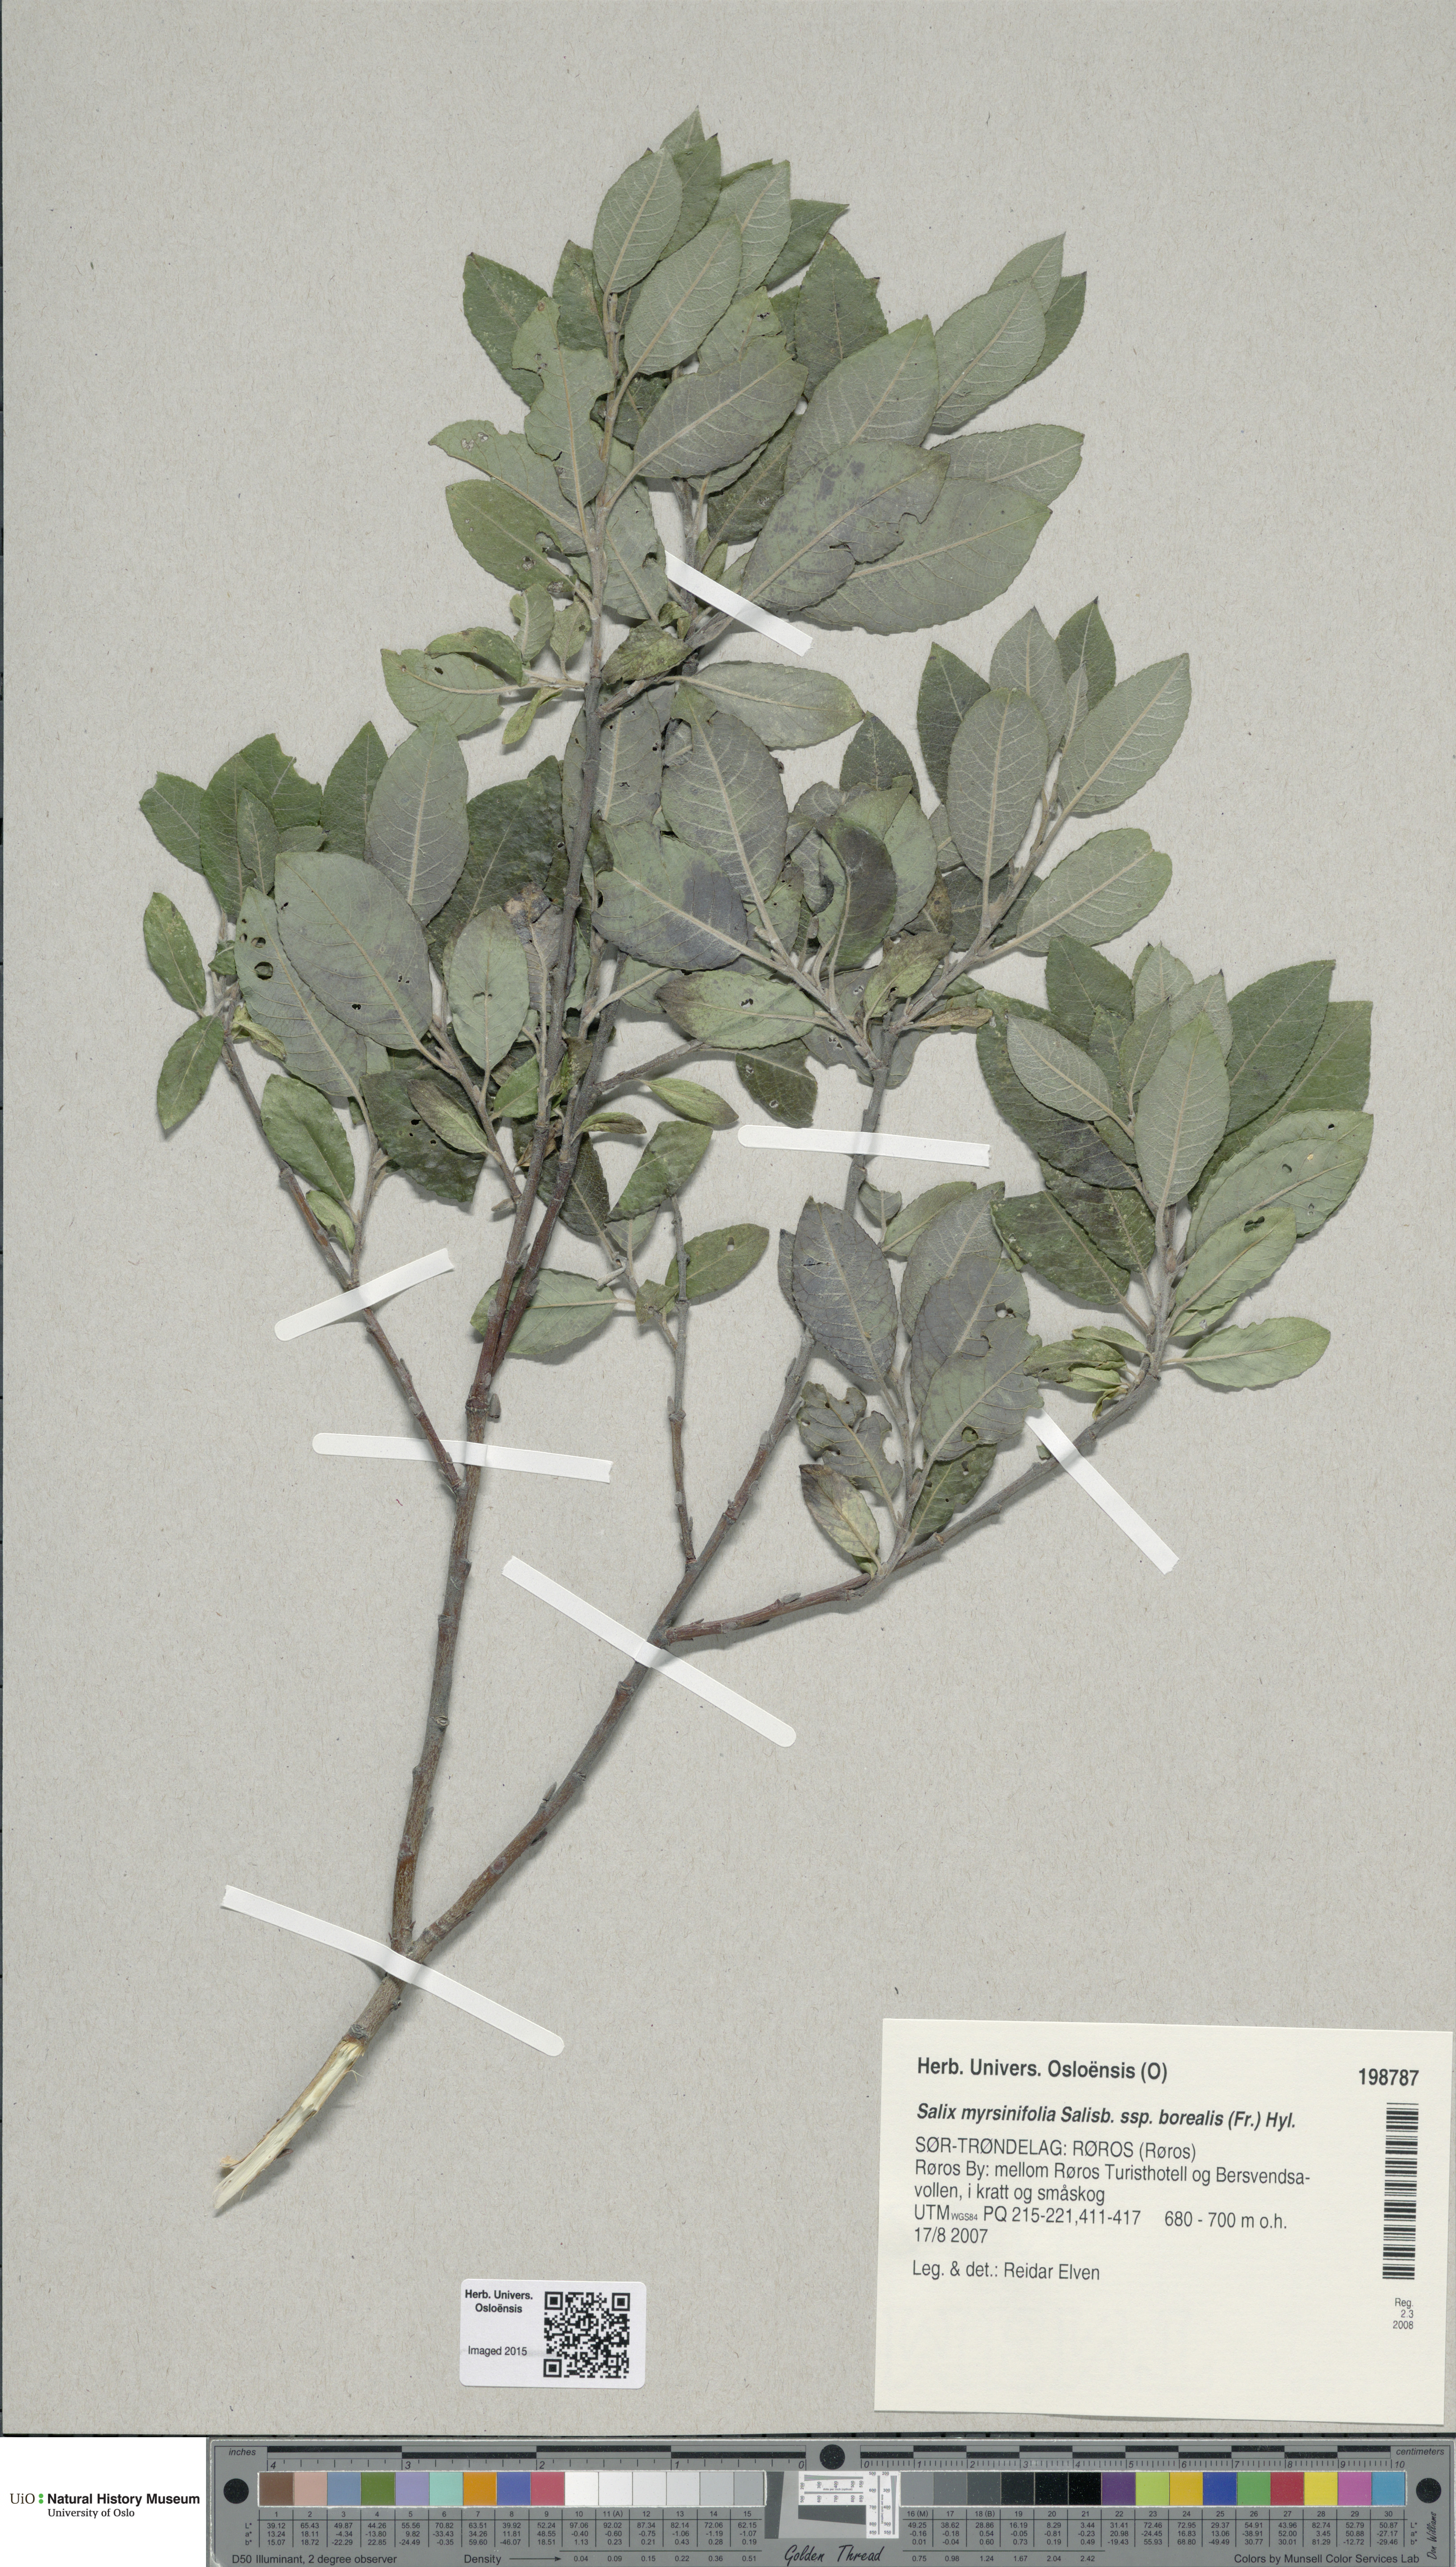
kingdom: Plantae
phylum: Tracheophyta
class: Magnoliopsida
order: Malpighiales
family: Salicaceae
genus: Salix
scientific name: Salix myrsinifolia
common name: Dark-leaved willow
